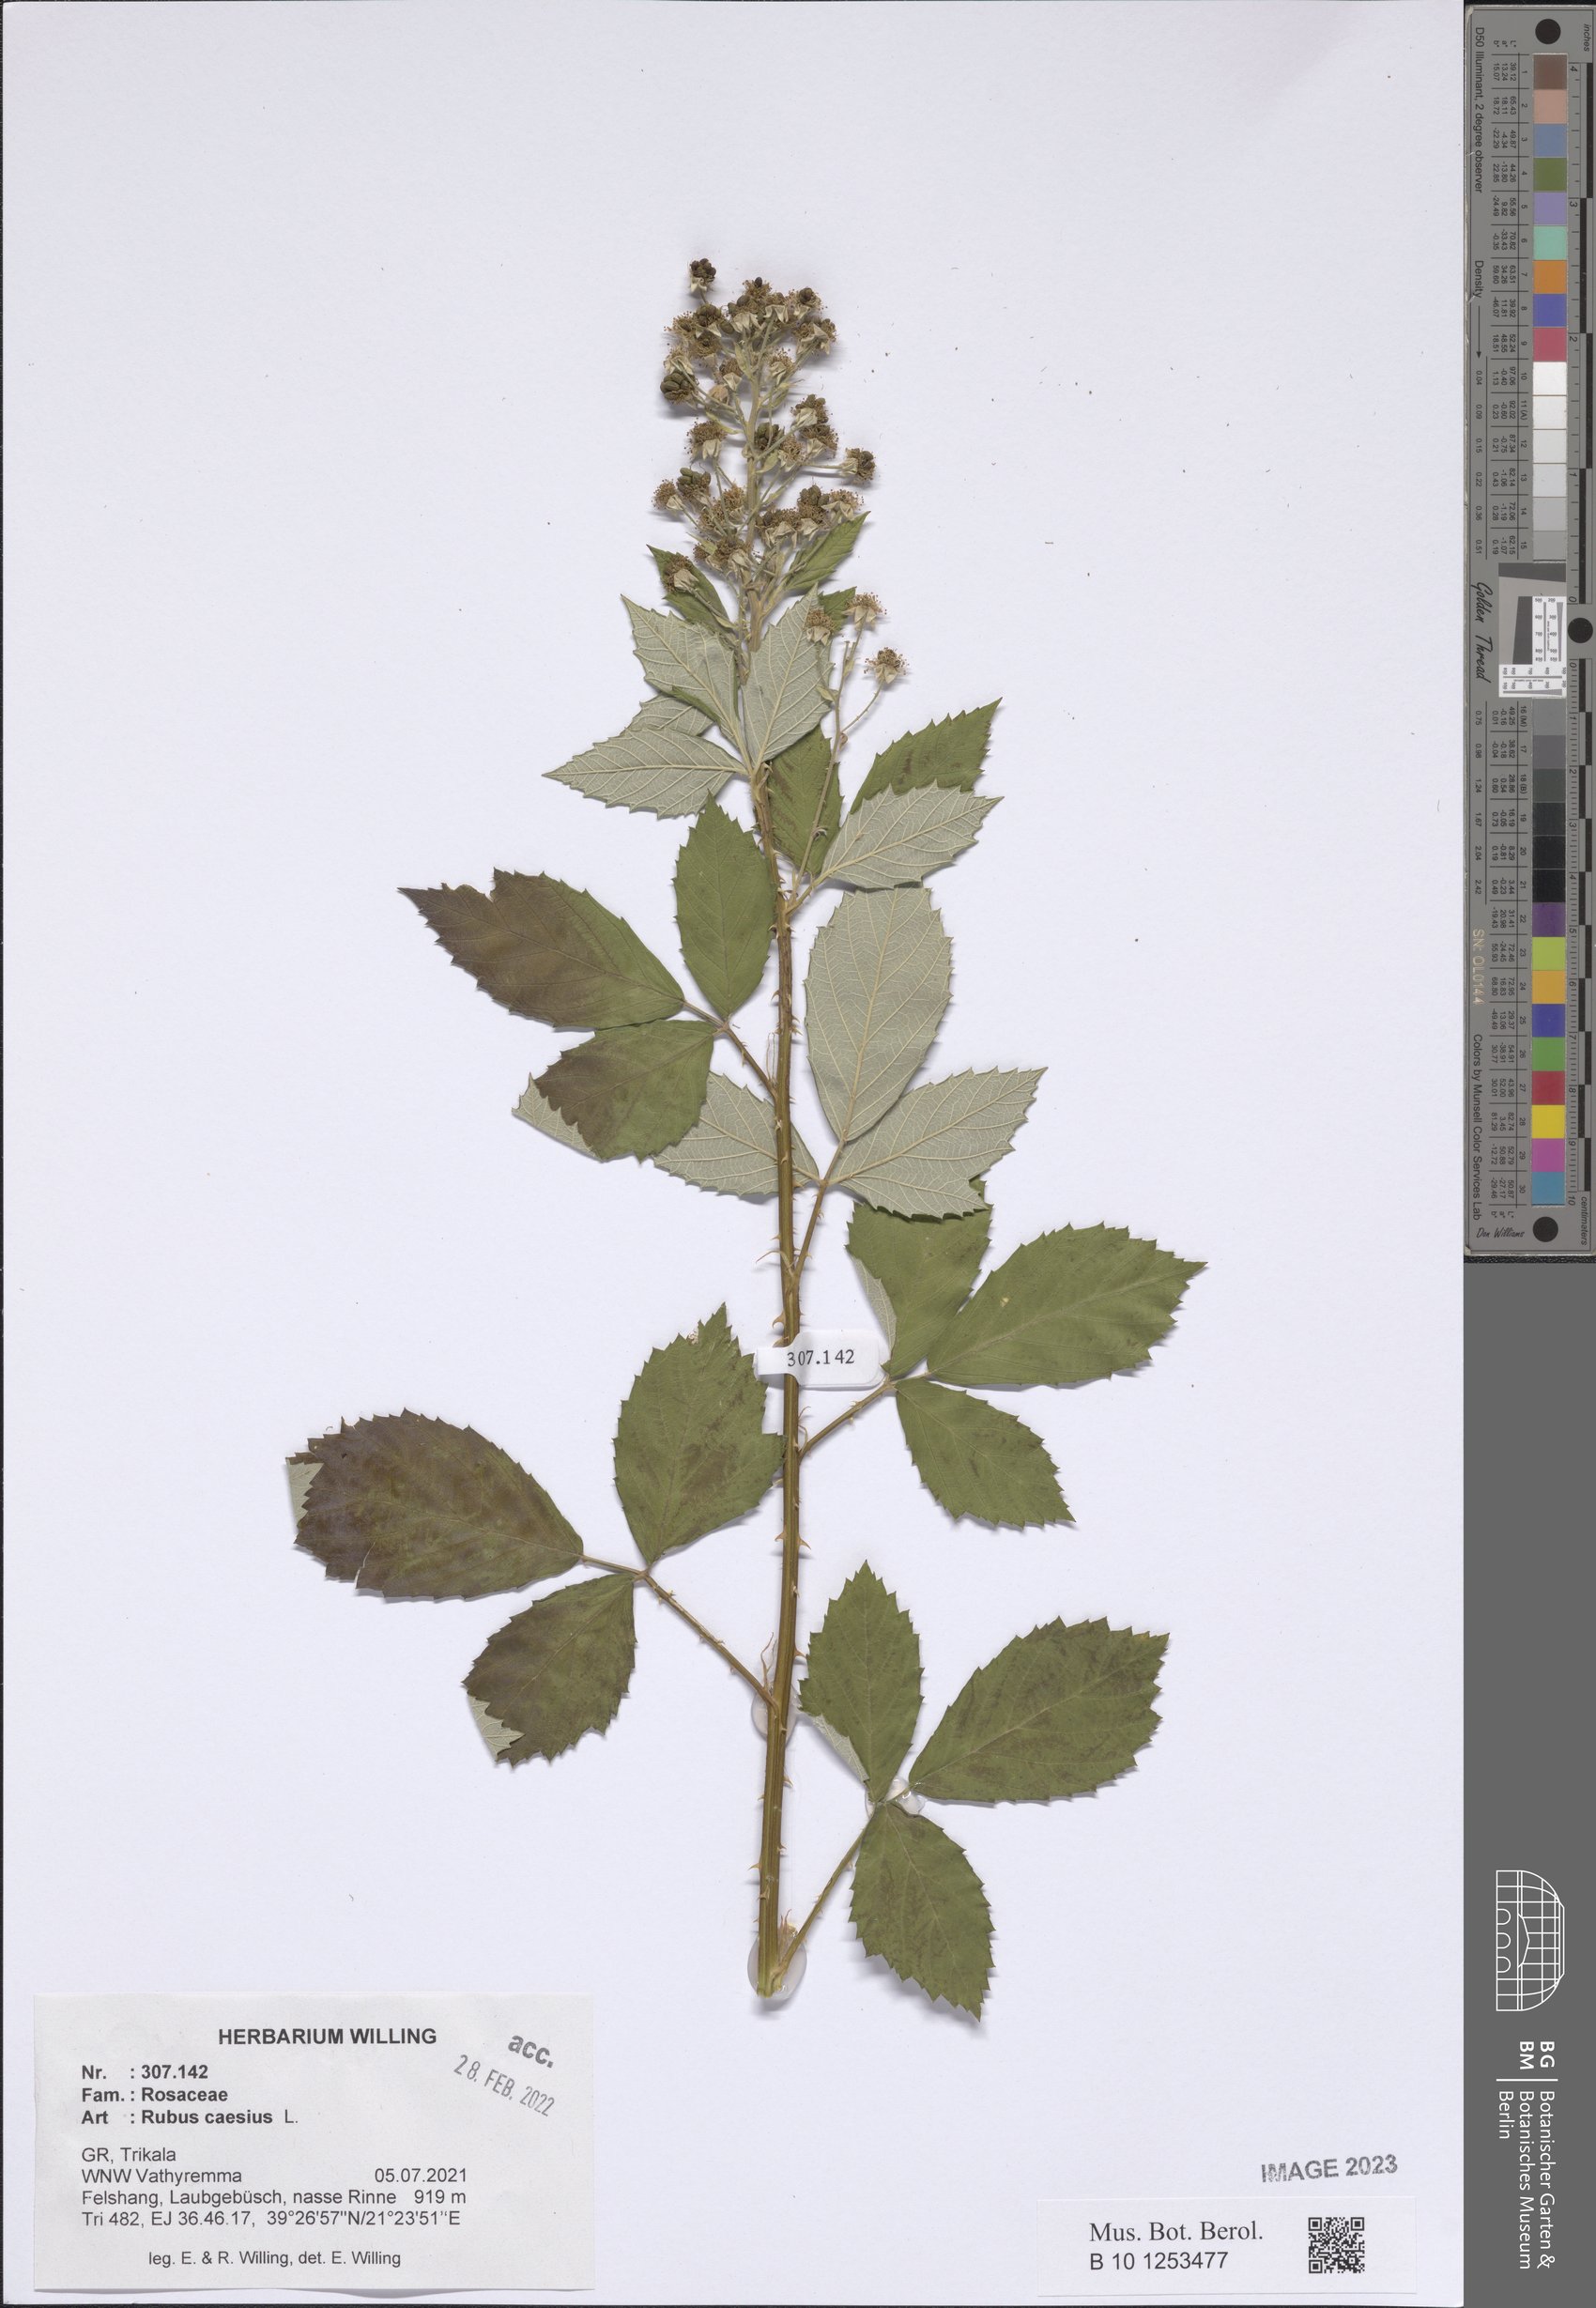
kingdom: Plantae
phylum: Tracheophyta
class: Magnoliopsida
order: Rosales
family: Rosaceae
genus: Rubus
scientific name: Rubus caesius
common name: Dewberry
